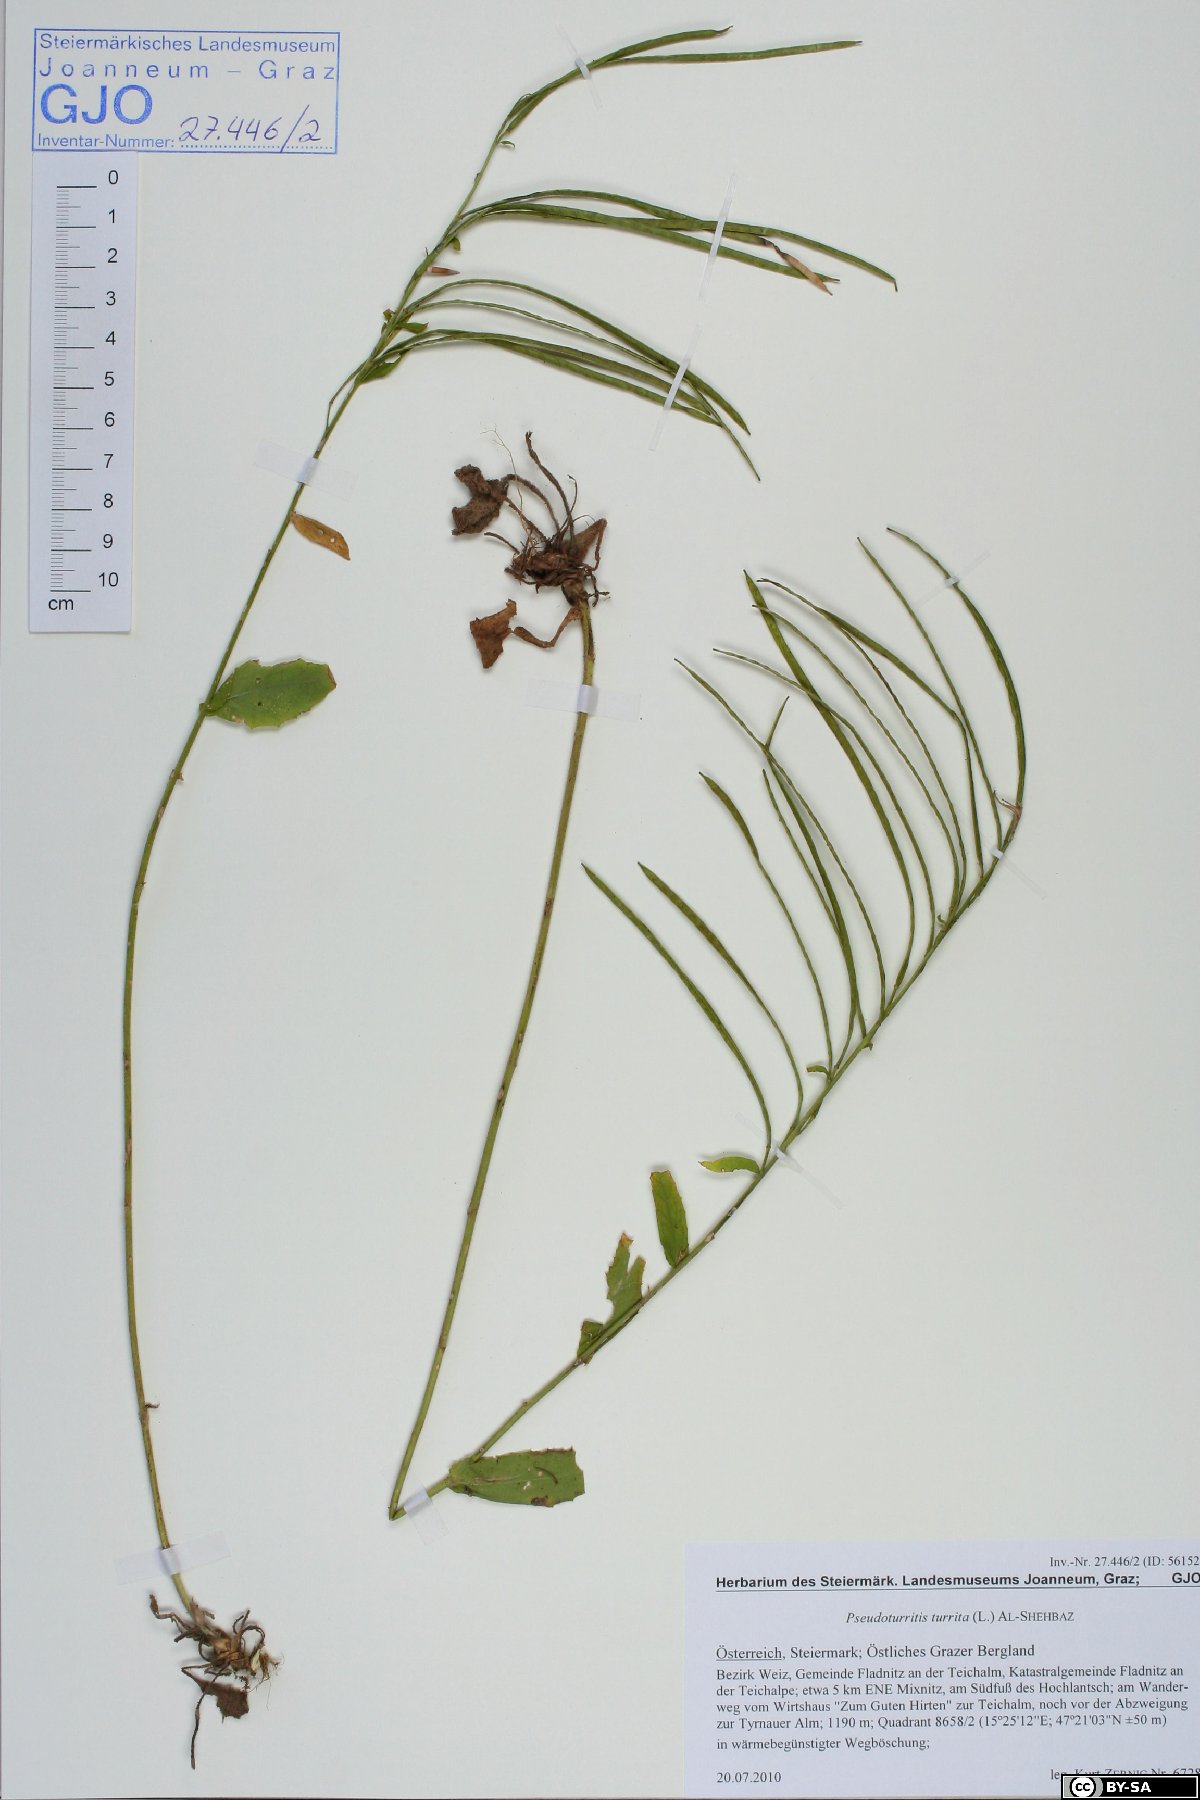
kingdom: Plantae
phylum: Tracheophyta
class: Magnoliopsida
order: Brassicales
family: Brassicaceae
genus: Pseudoturritis
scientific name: Pseudoturritis turrita
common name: Tower cress
